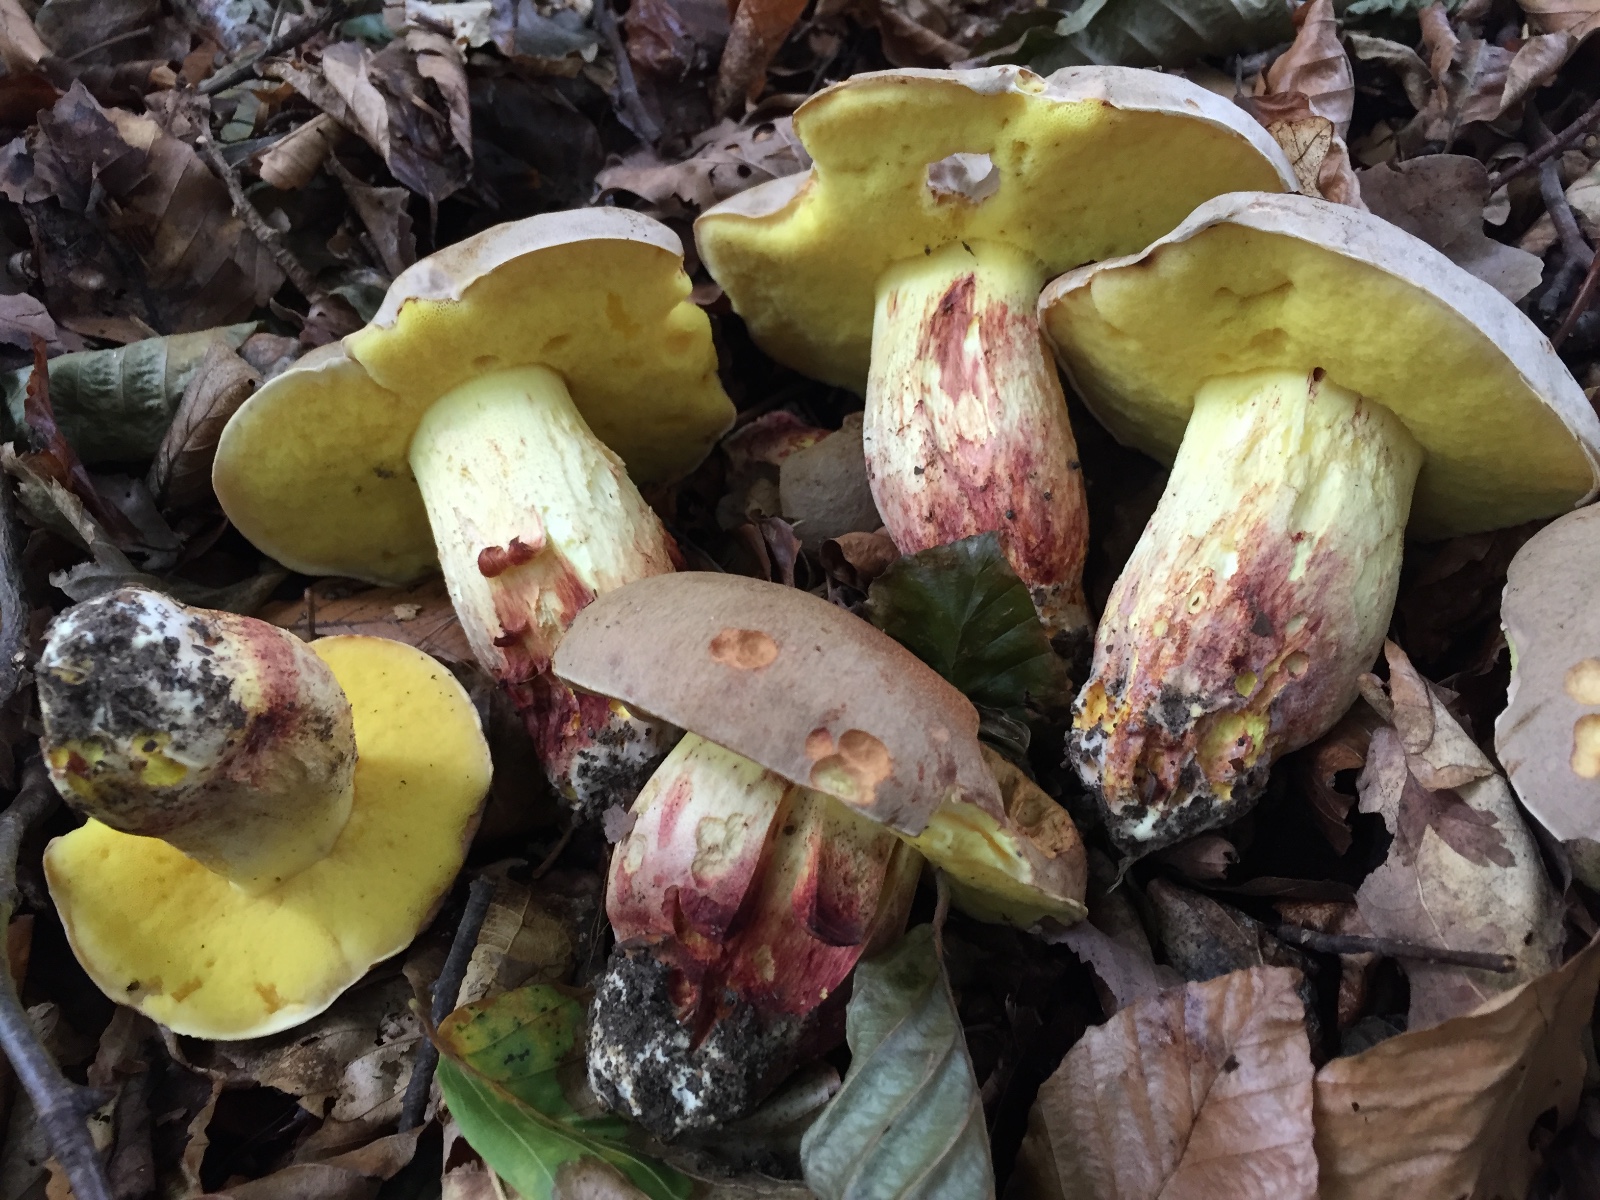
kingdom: Fungi
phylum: Basidiomycota
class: Agaricomycetes
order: Boletales
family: Boletaceae
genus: Hemileccinum
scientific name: Hemileccinum impolitum
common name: bleg rørhat
